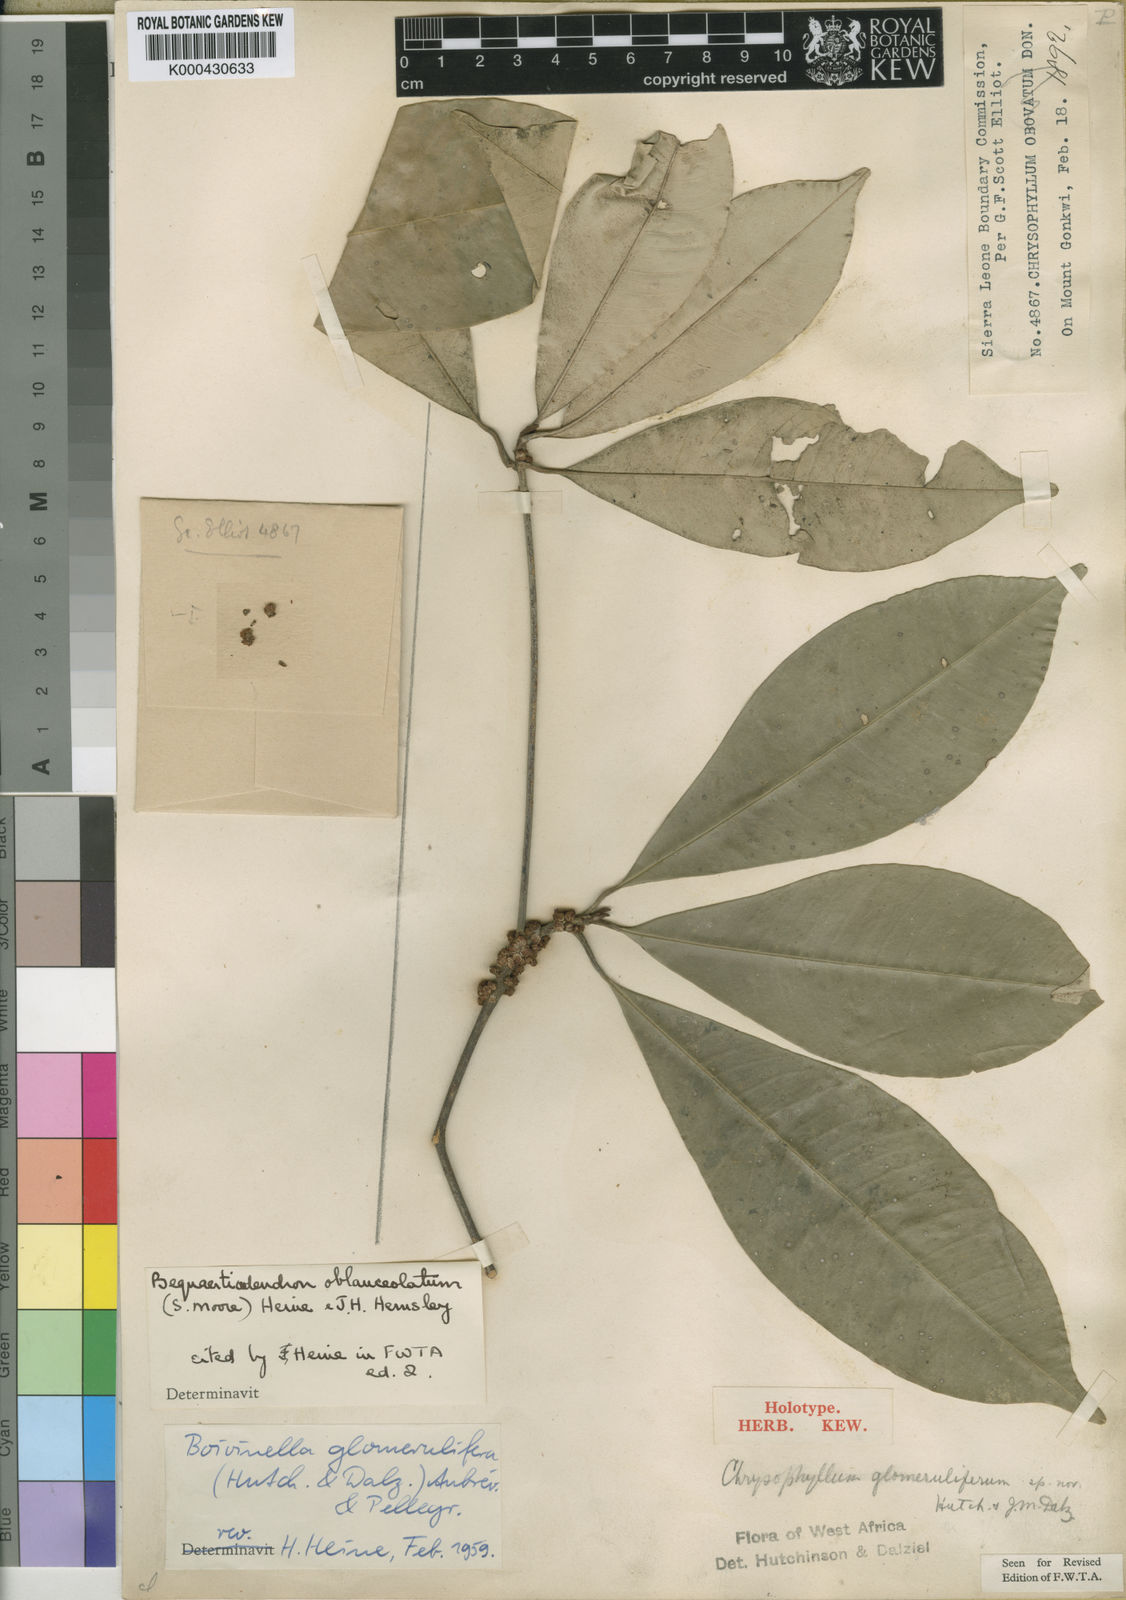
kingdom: Plantae
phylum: Tracheophyta
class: Magnoliopsida
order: Ericales
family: Sapotaceae
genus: Englerophytum
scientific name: Englerophytum oblanceolatum
